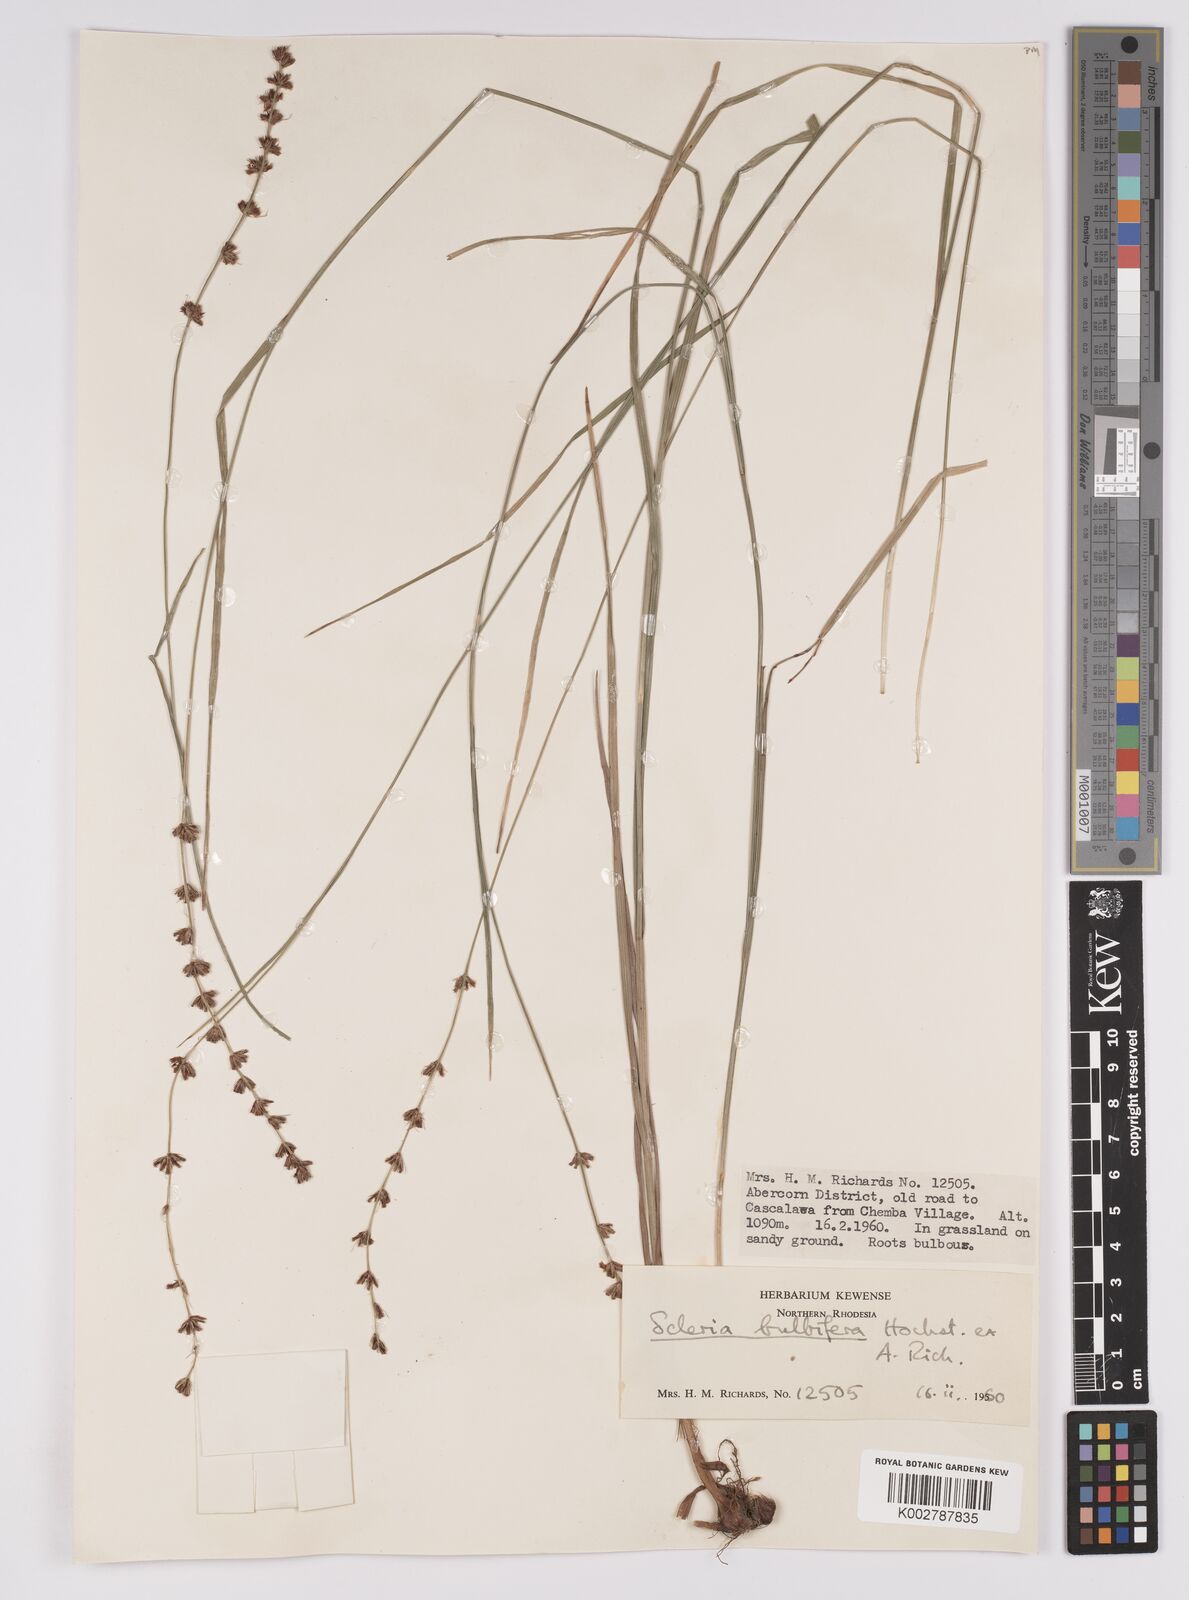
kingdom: Plantae
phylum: Tracheophyta
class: Liliopsida
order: Poales
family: Cyperaceae
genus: Scleria
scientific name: Scleria bulbifera
